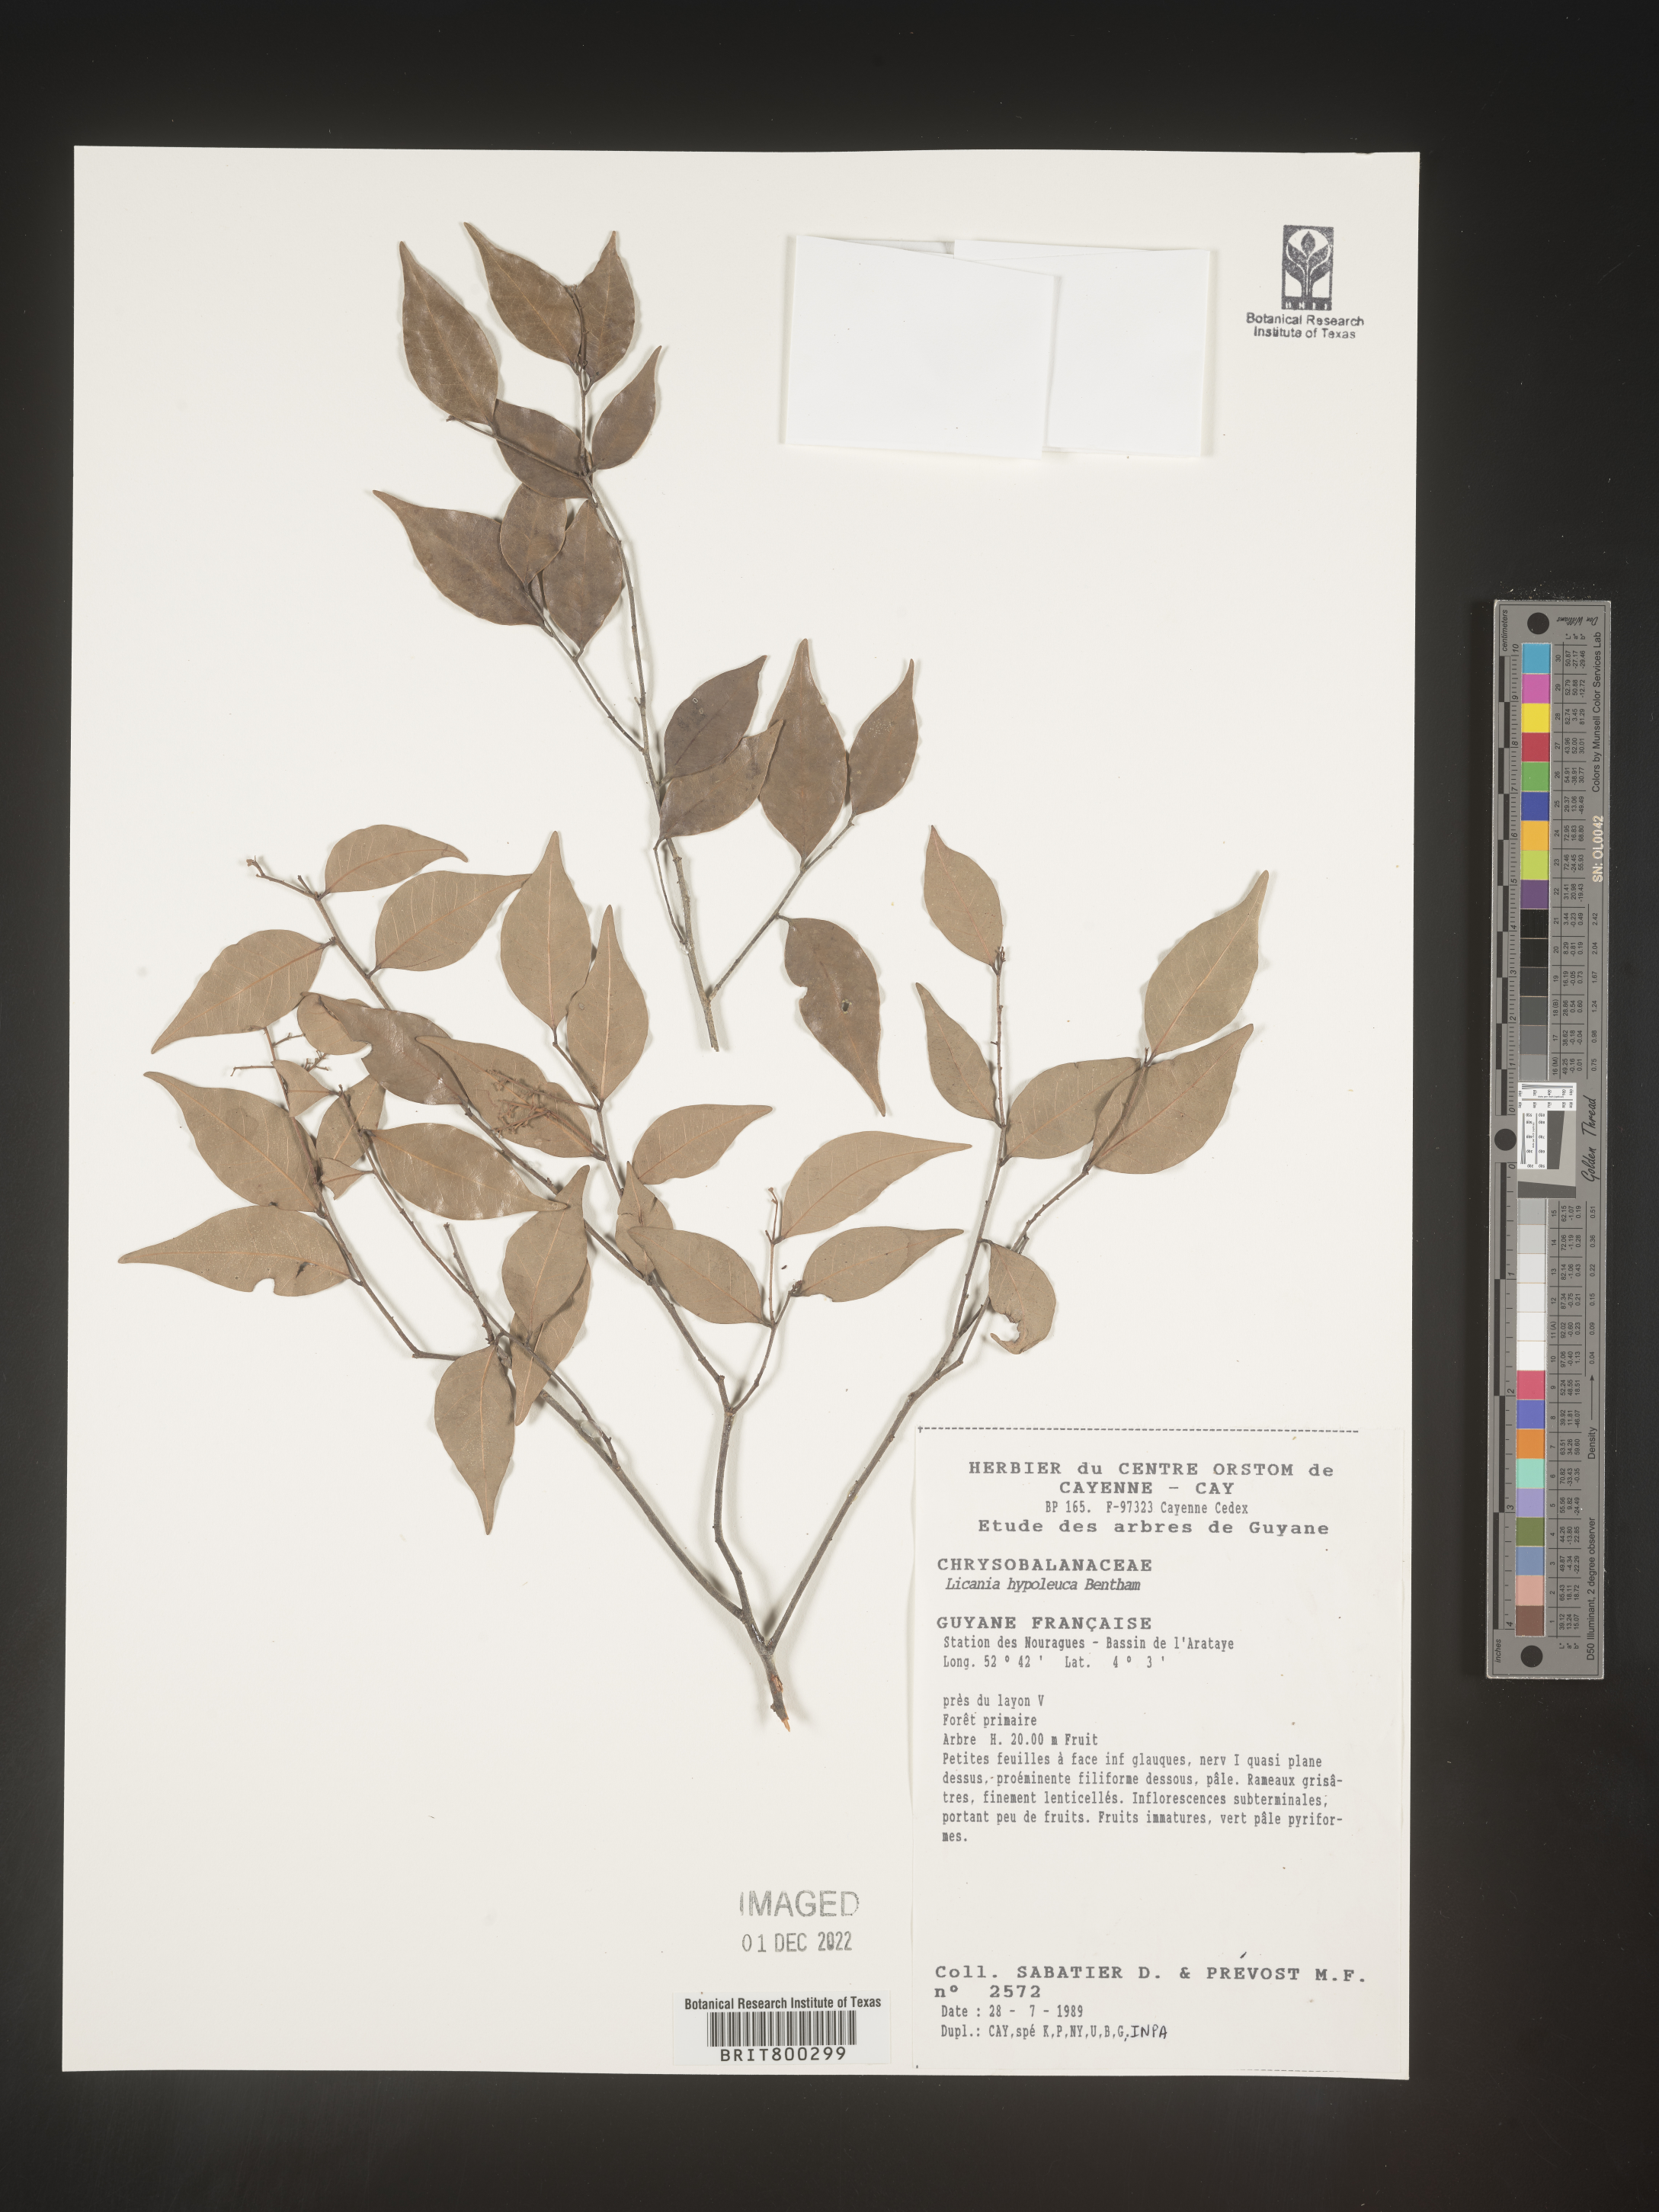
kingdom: Plantae
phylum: Tracheophyta
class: Magnoliopsida
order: Malpighiales
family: Chrysobalanaceae
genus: Geobalanus
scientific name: Geobalanus oblongifolius
